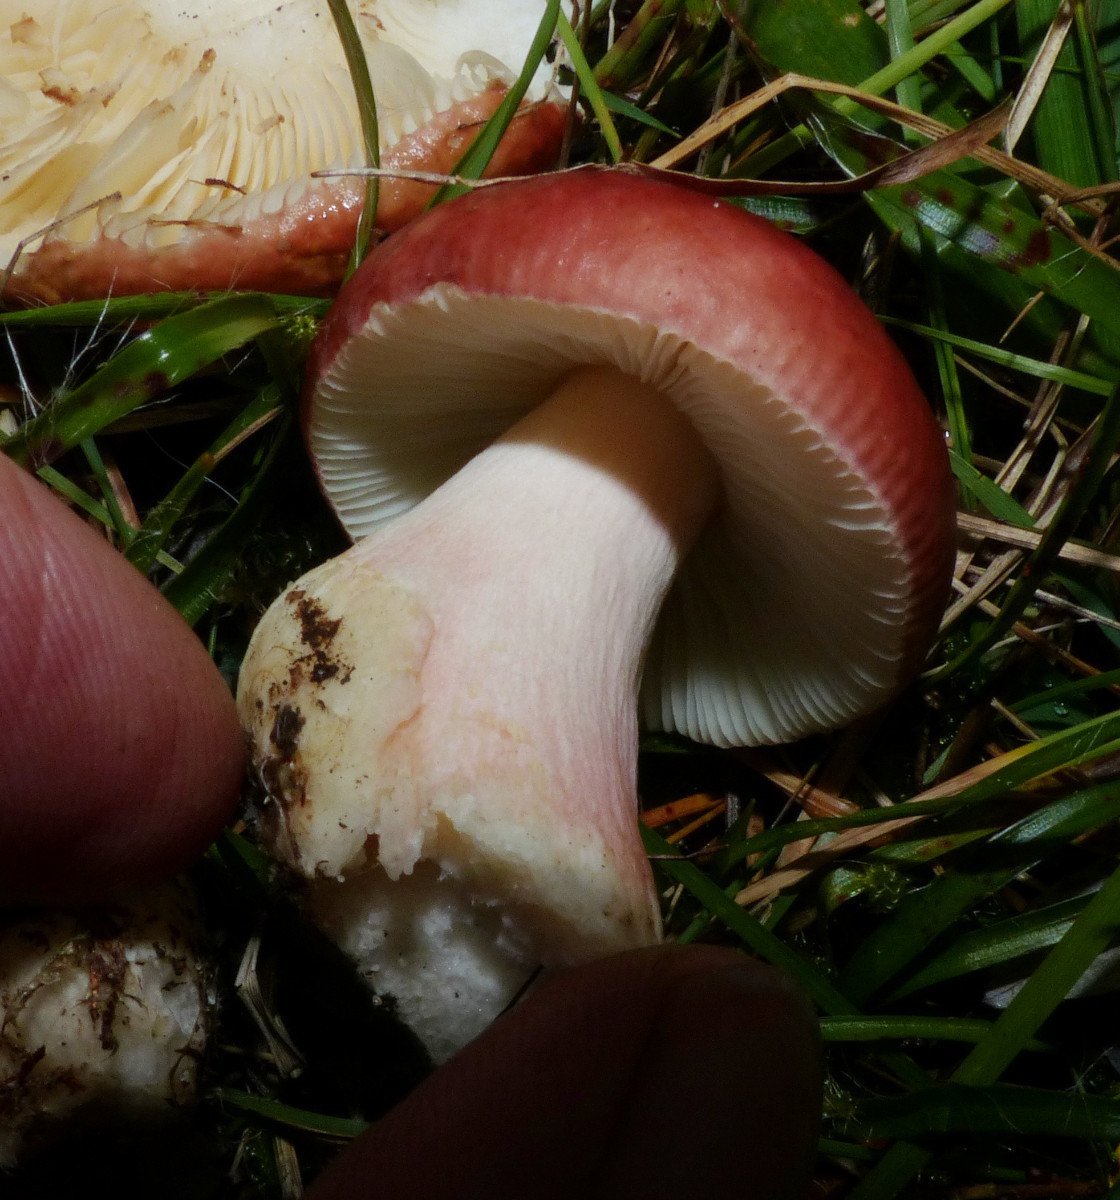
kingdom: Fungi
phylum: Basidiomycota
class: Agaricomycetes
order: Russulales
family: Russulaceae
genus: Russula
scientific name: Russula subrubens
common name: pile-skørhat
